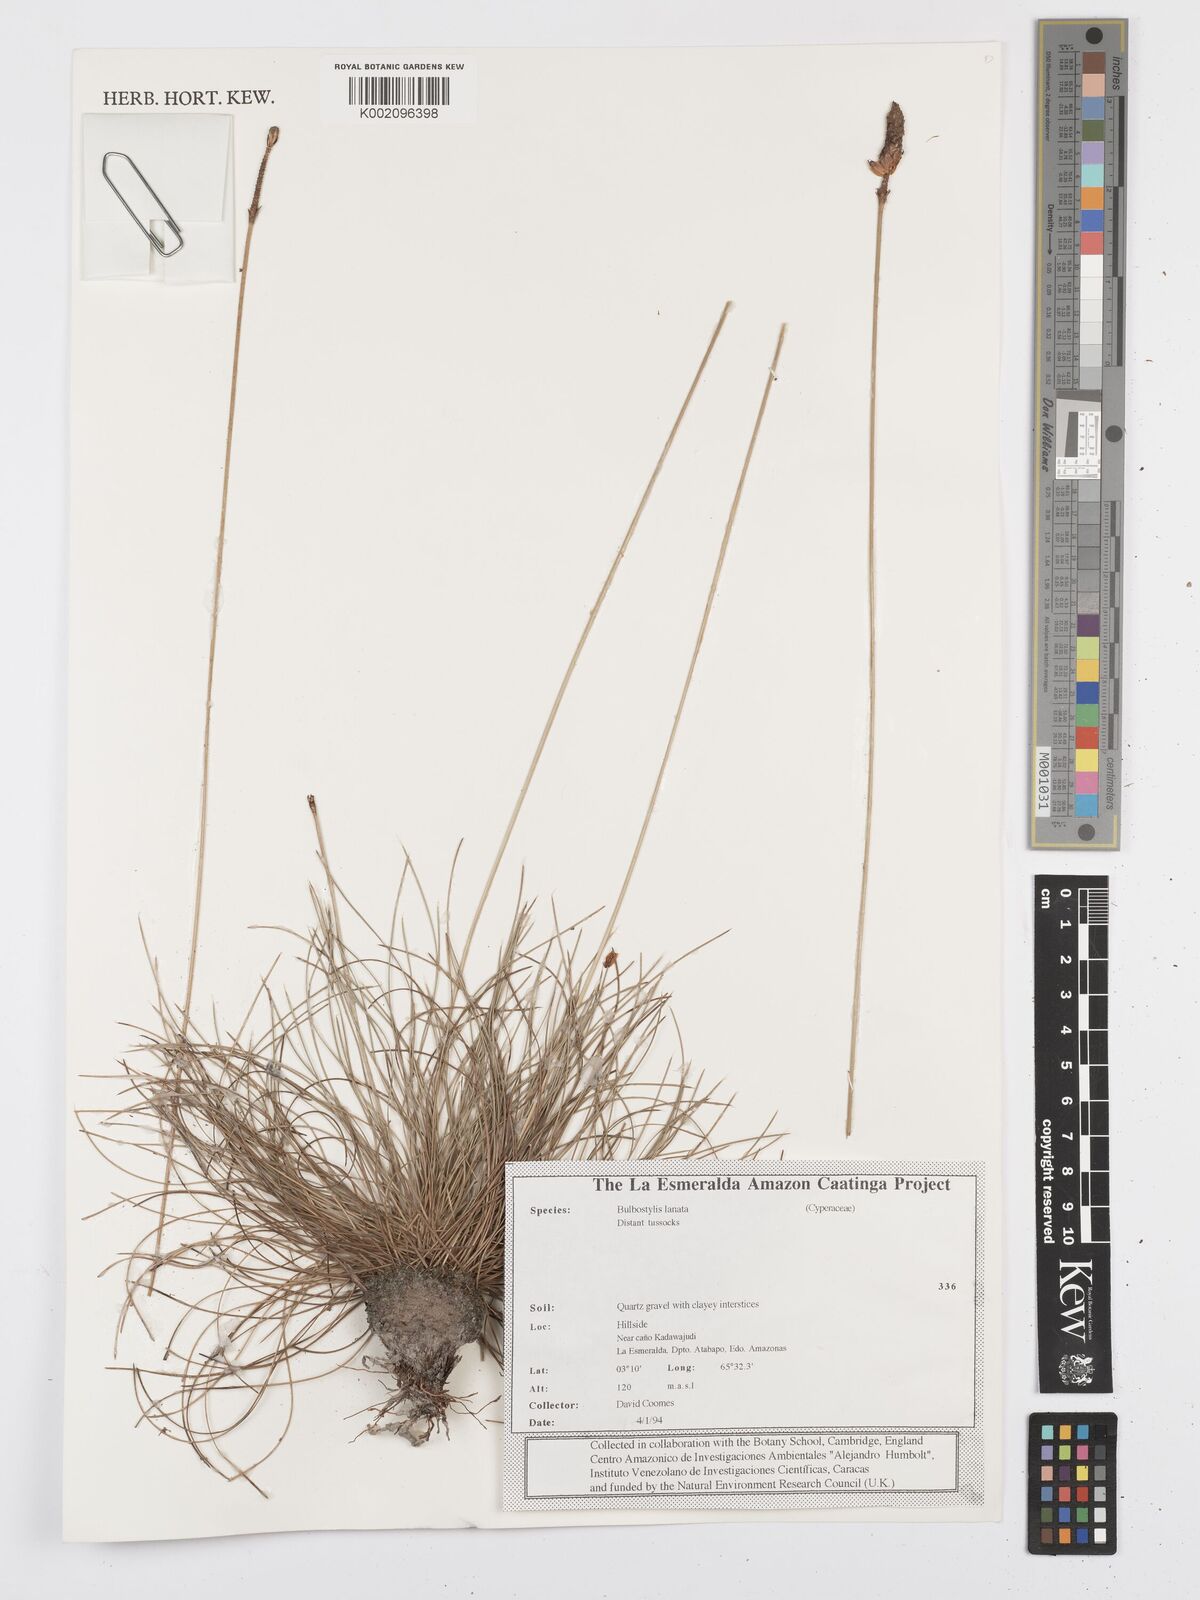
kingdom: Plantae
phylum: Tracheophyta
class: Liliopsida
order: Poales
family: Cyperaceae
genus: Bulbostylis
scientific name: Bulbostylis lanata
